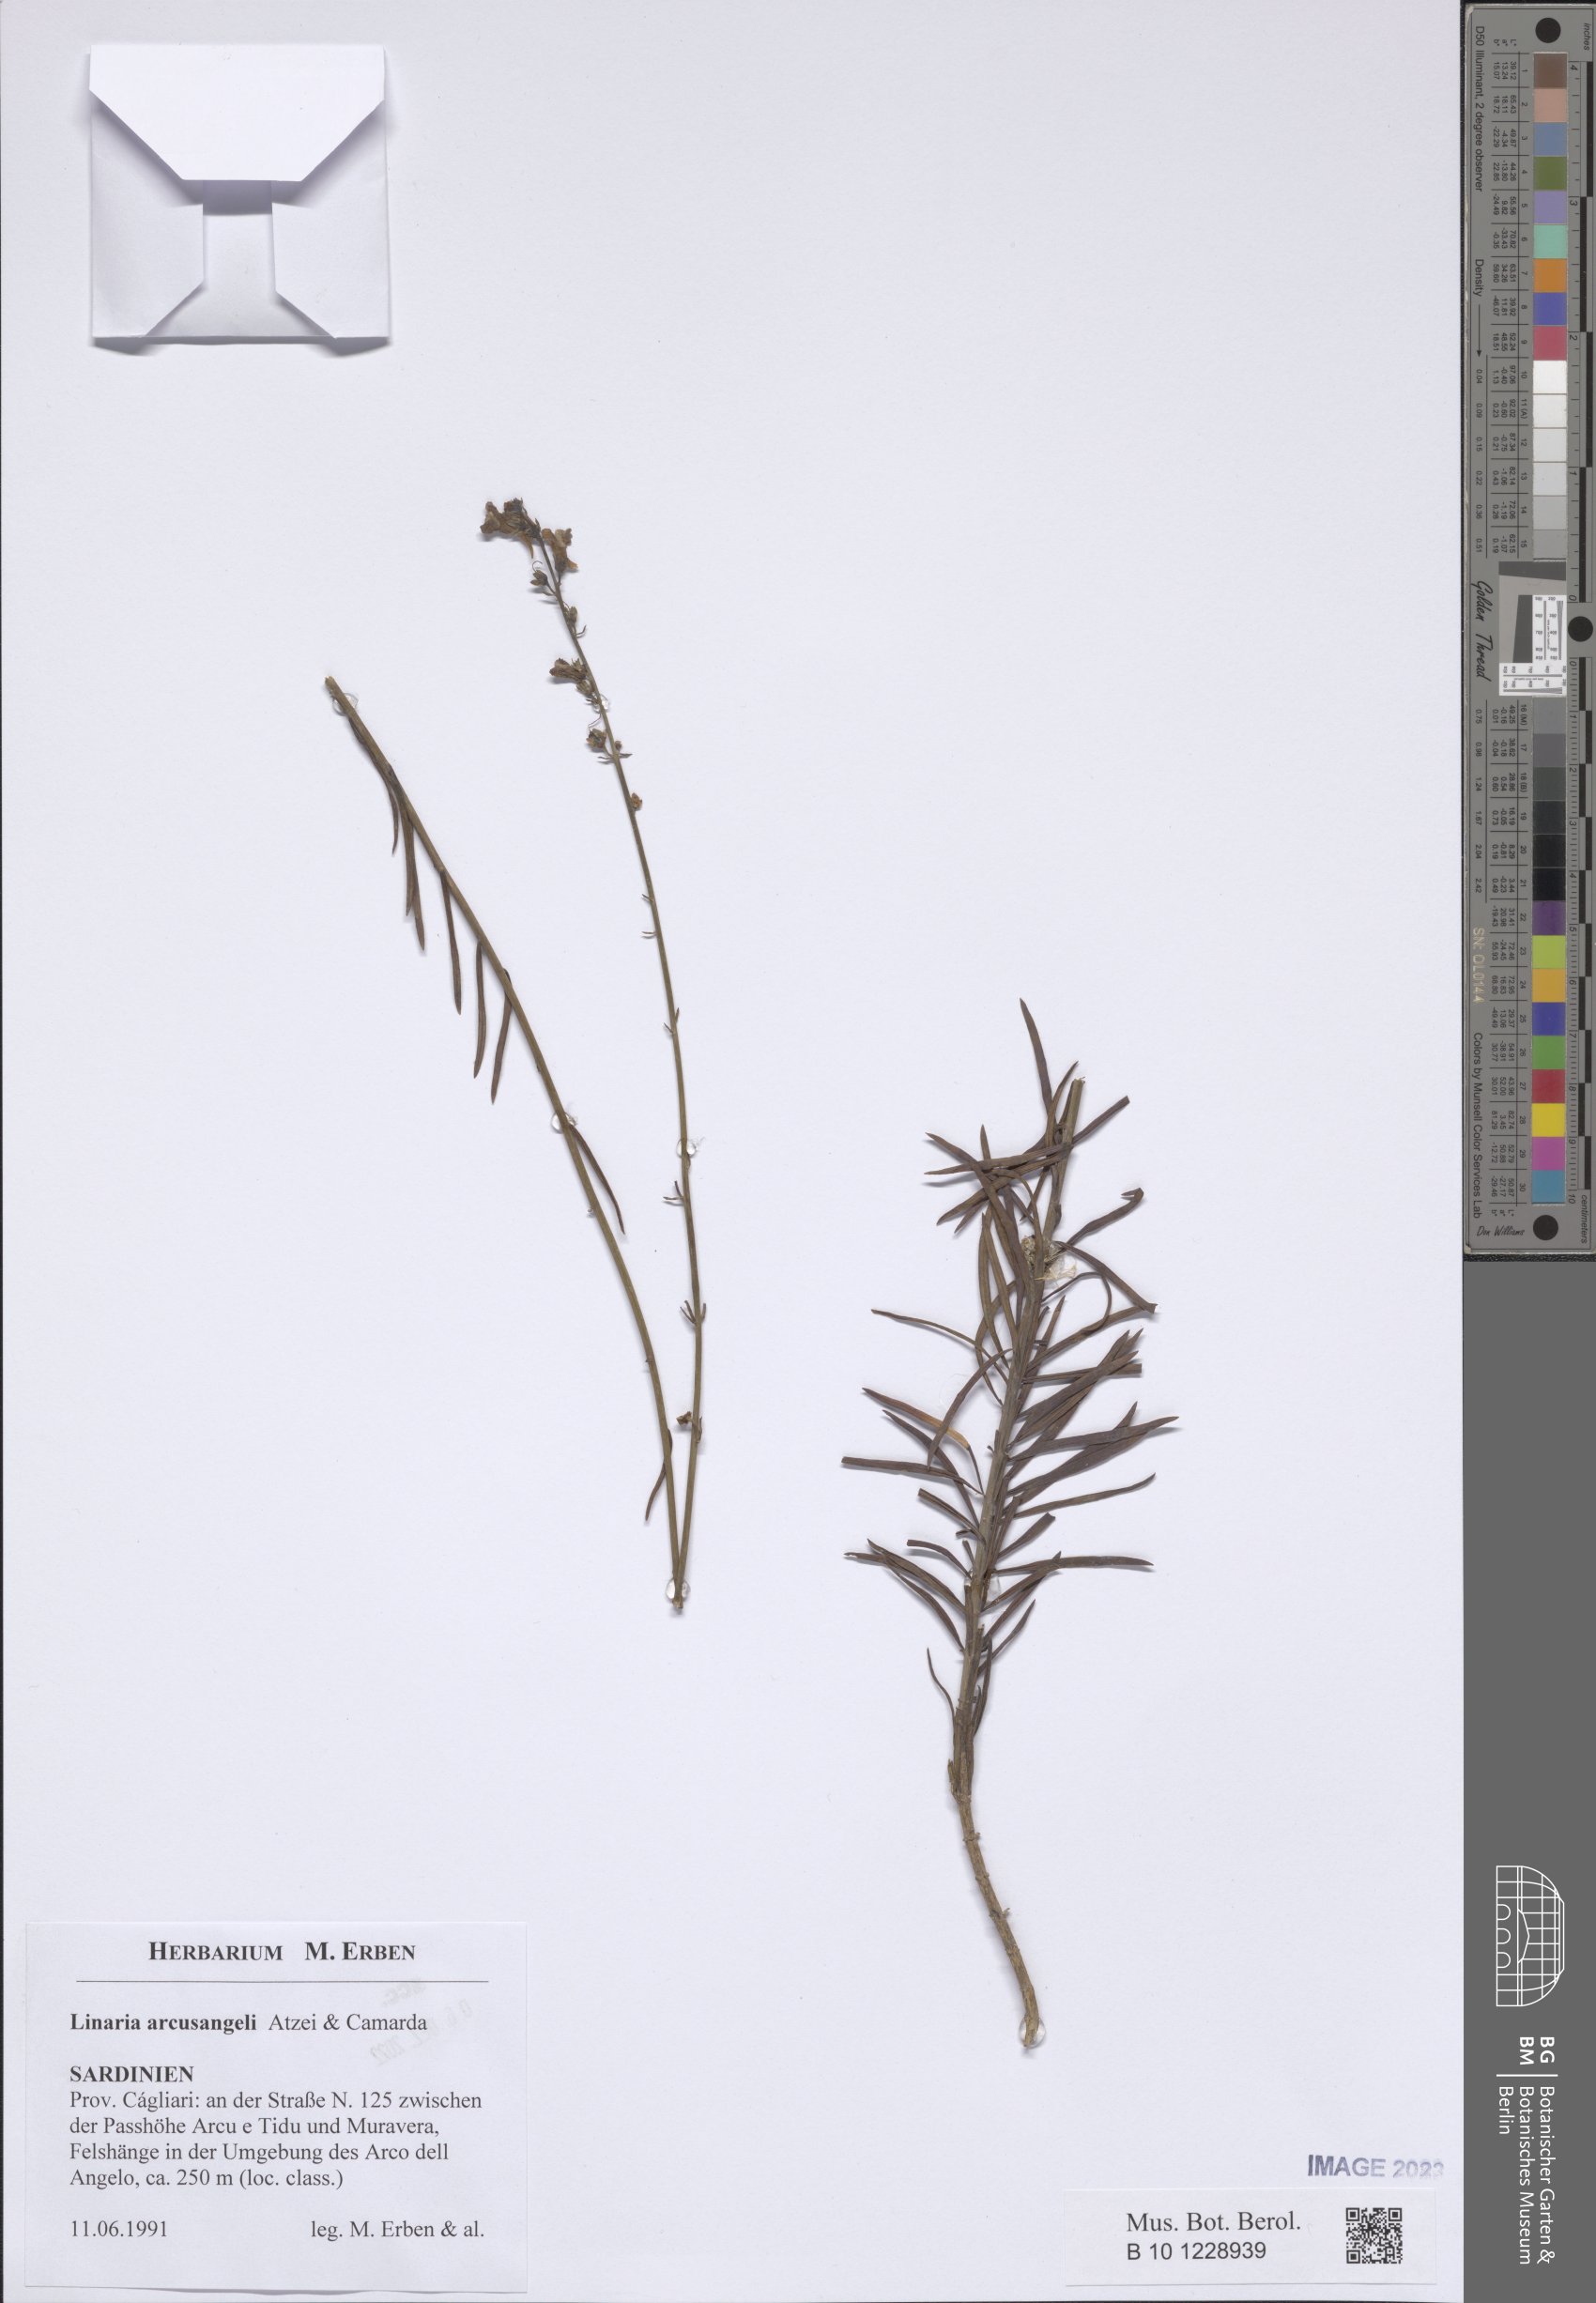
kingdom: Plantae
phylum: Tracheophyta
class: Magnoliopsida
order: Lamiales
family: Plantaginaceae
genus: Linaria
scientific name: Linaria arcusangeli
